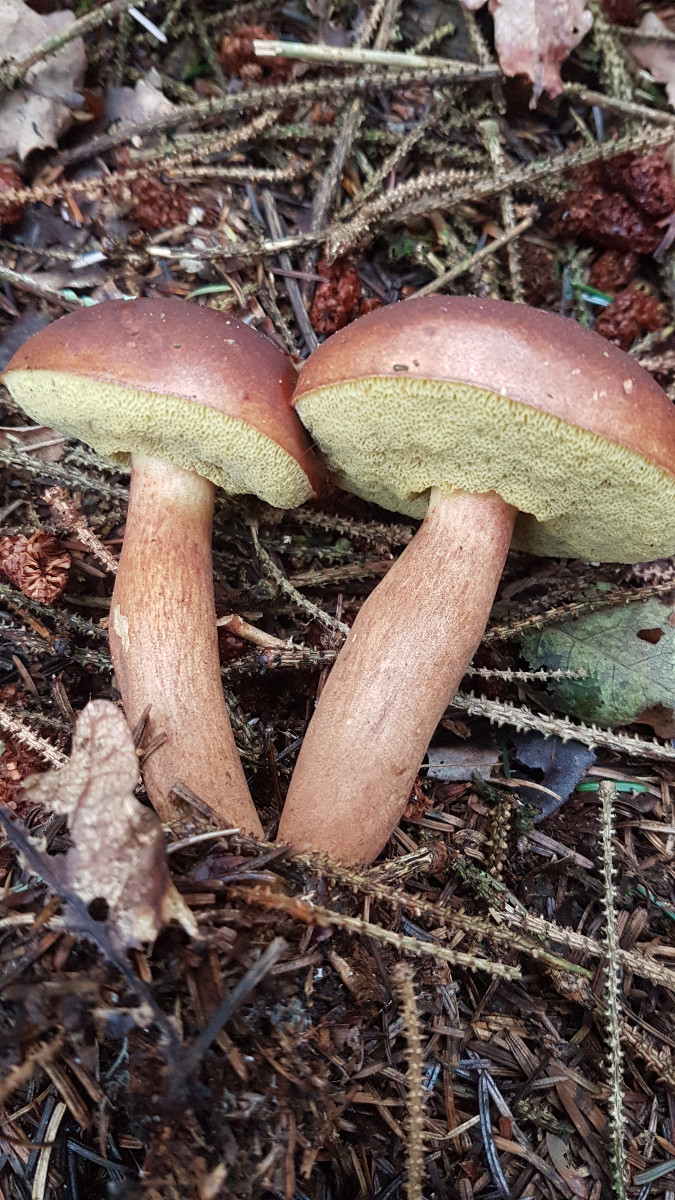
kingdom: Fungi
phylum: Basidiomycota
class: Agaricomycetes
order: Boletales
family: Boletaceae
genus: Imleria
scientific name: Imleria badia
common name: brunstokket rørhat
